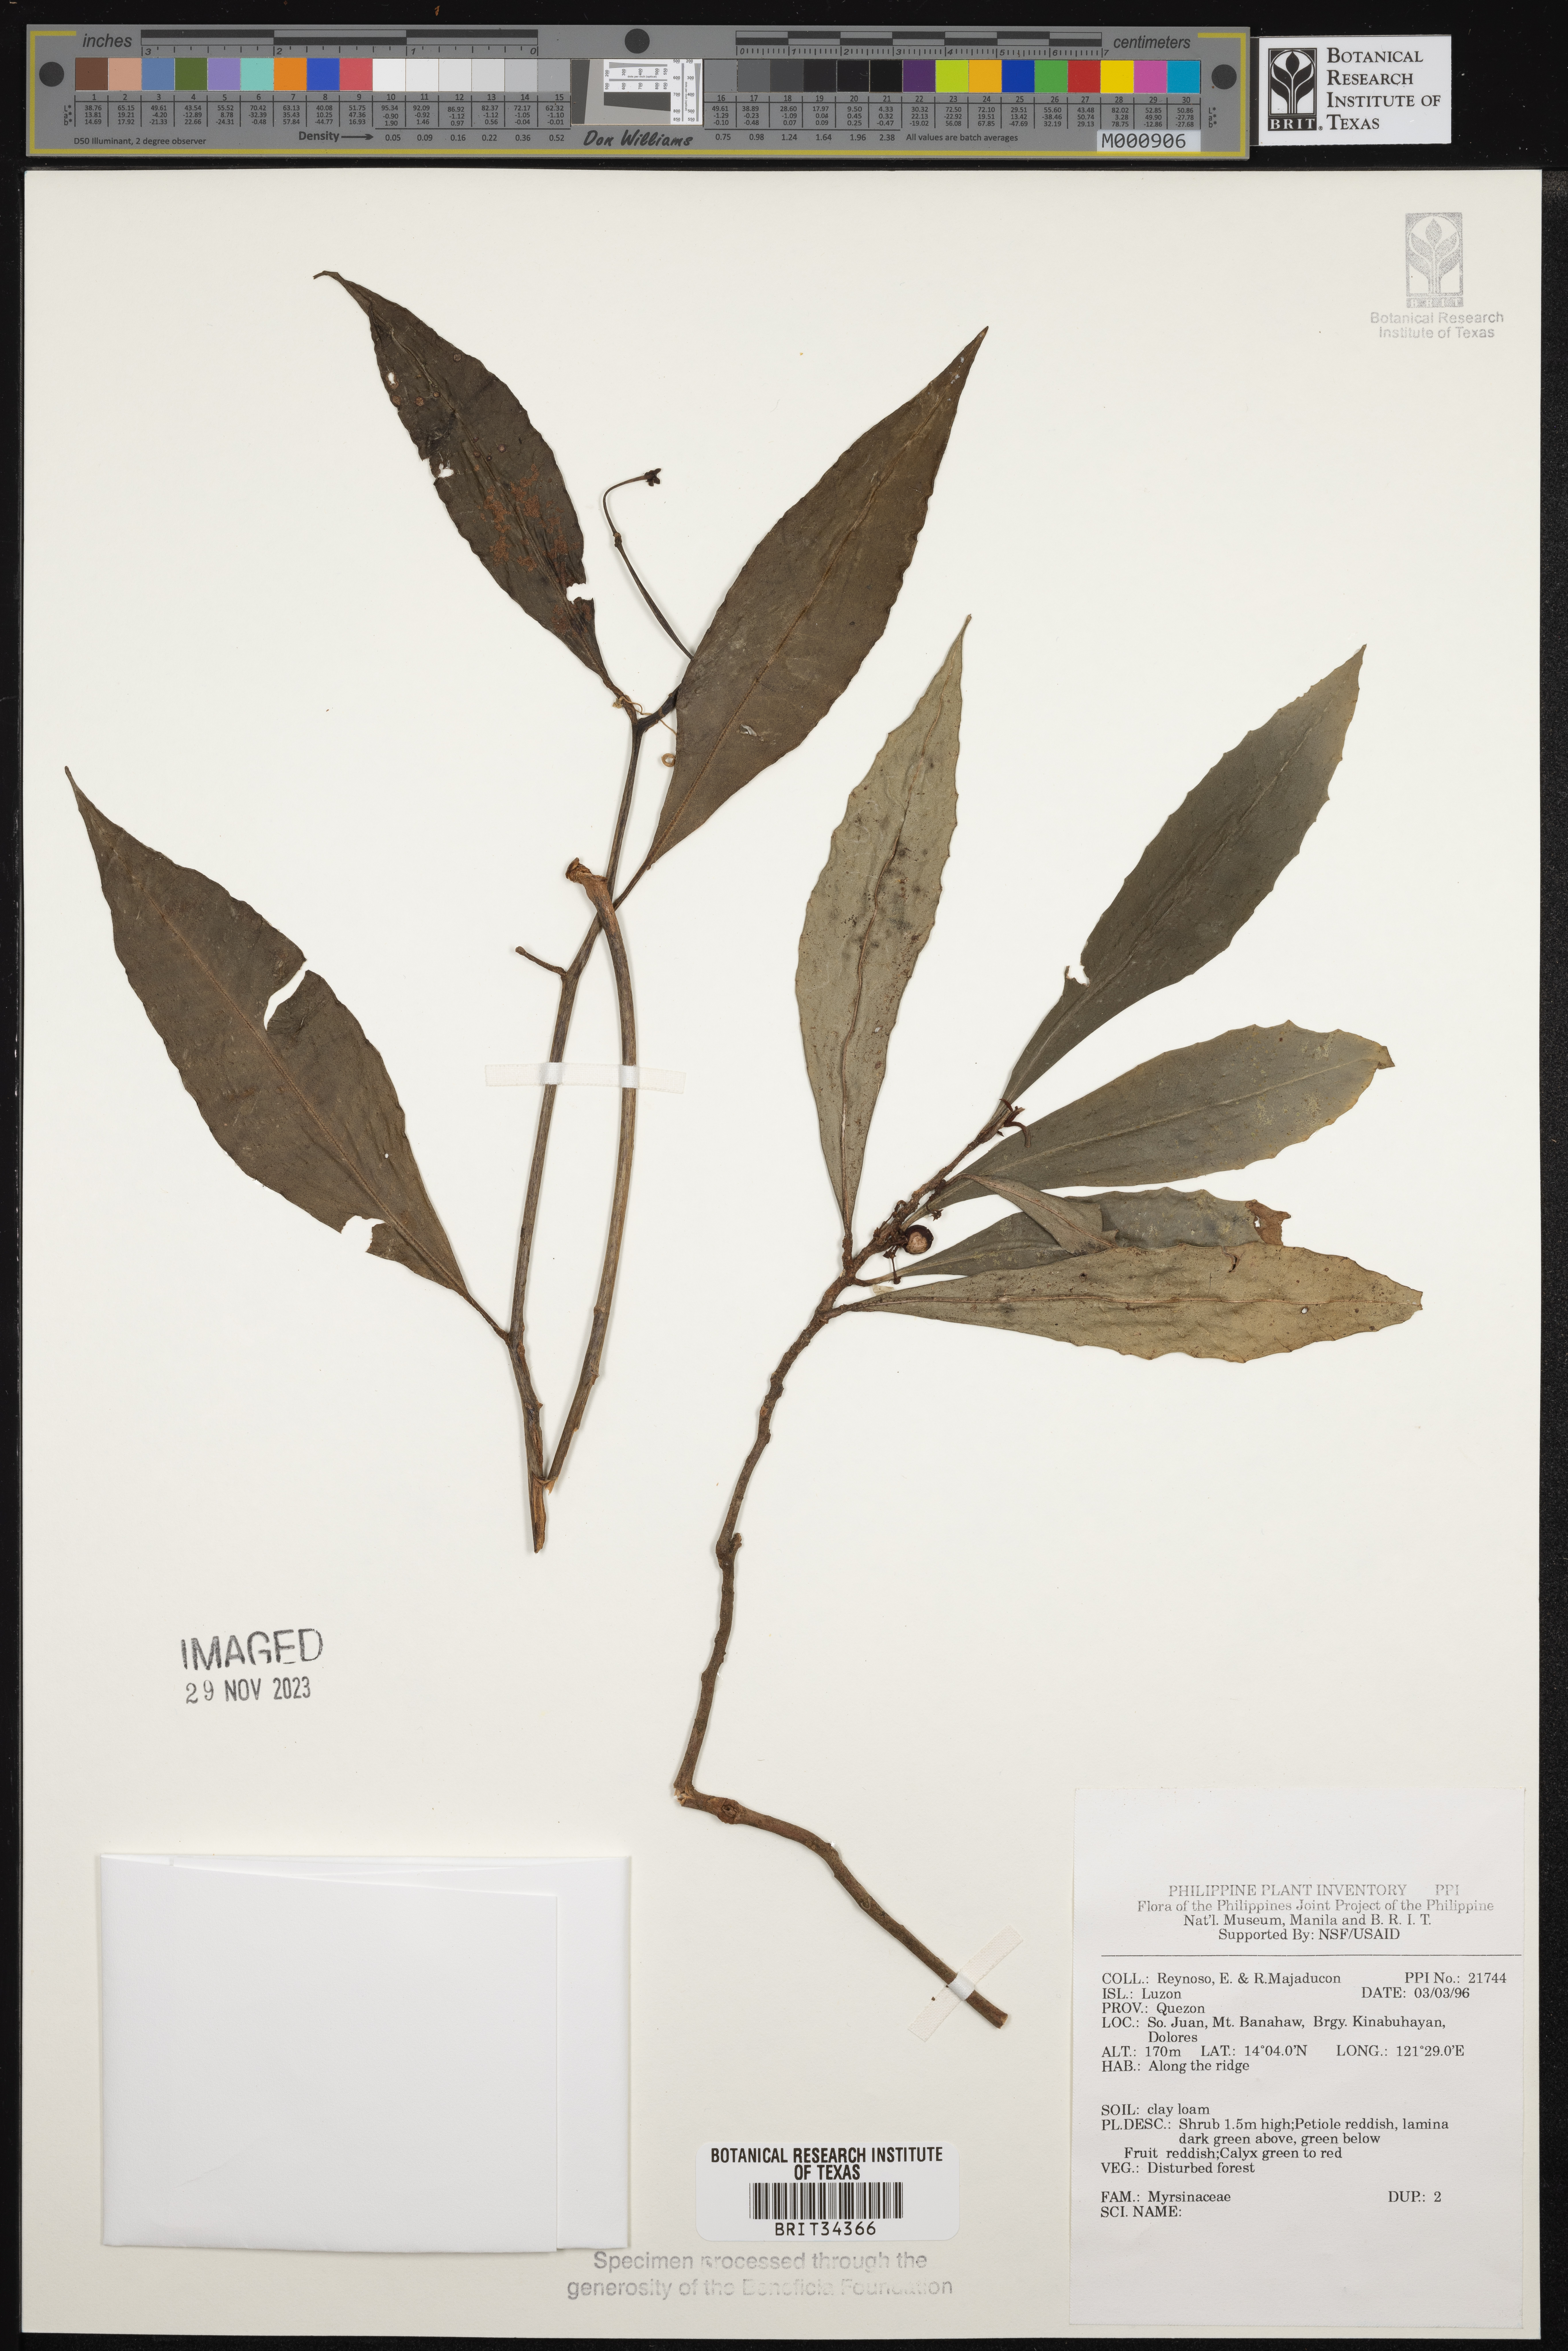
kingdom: Plantae
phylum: Tracheophyta
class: Magnoliopsida
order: Ericales
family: Primulaceae
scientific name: Primulaceae
